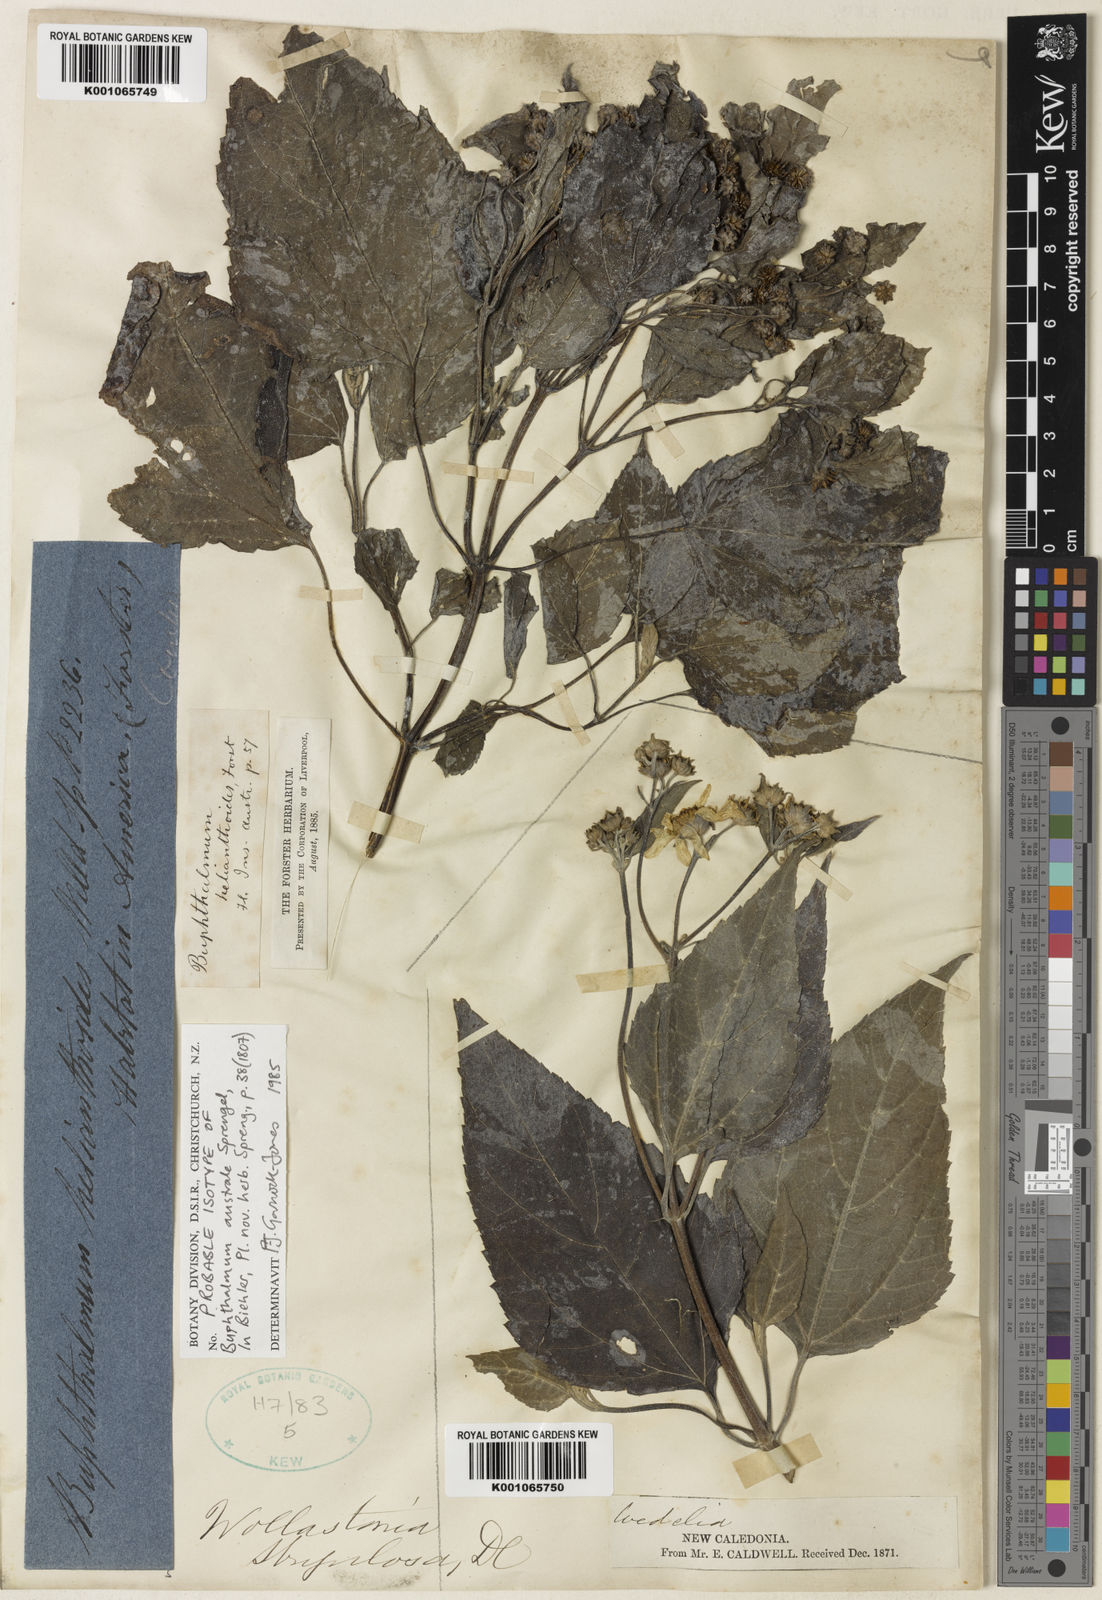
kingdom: Plantae
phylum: Tracheophyta
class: Magnoliopsida
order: Asterales
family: Asteraceae
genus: Wollastonia
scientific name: Wollastonia biflora
